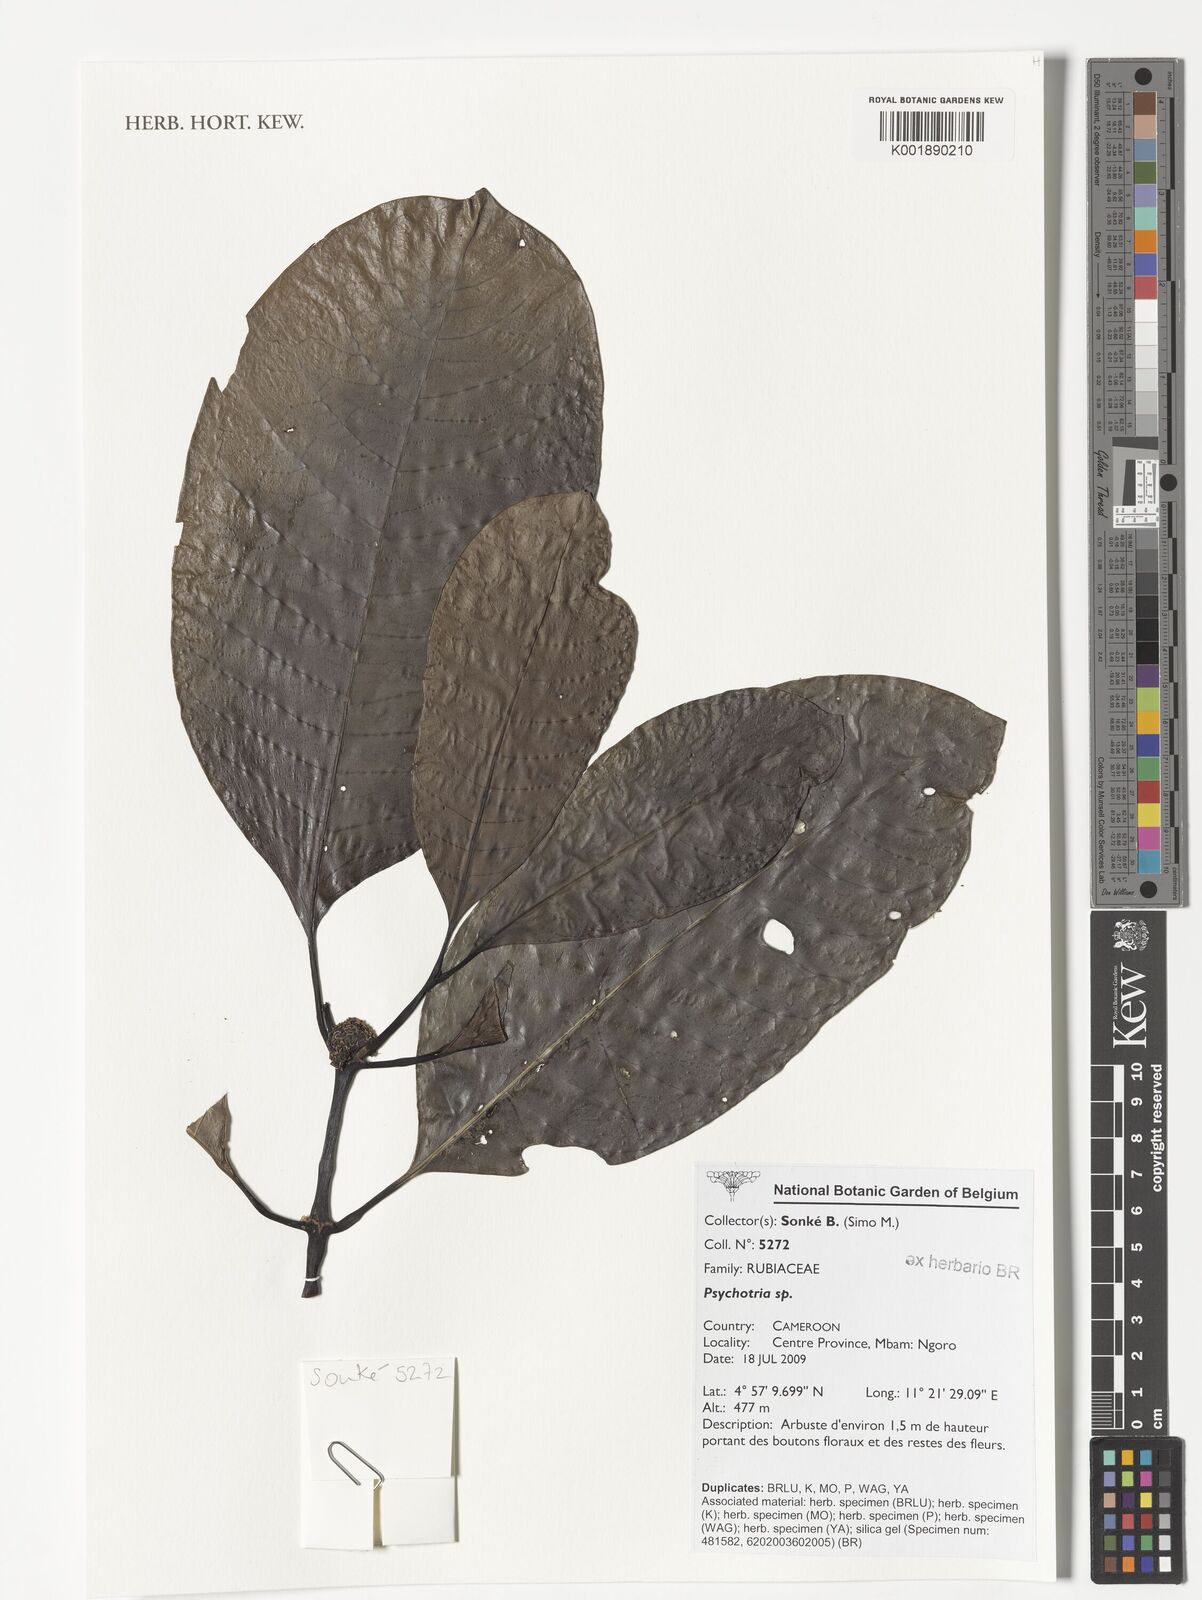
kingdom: Plantae
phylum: Tracheophyta
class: Magnoliopsida
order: Gentianales
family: Rubiaceae
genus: Psychotria
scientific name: Psychotria
